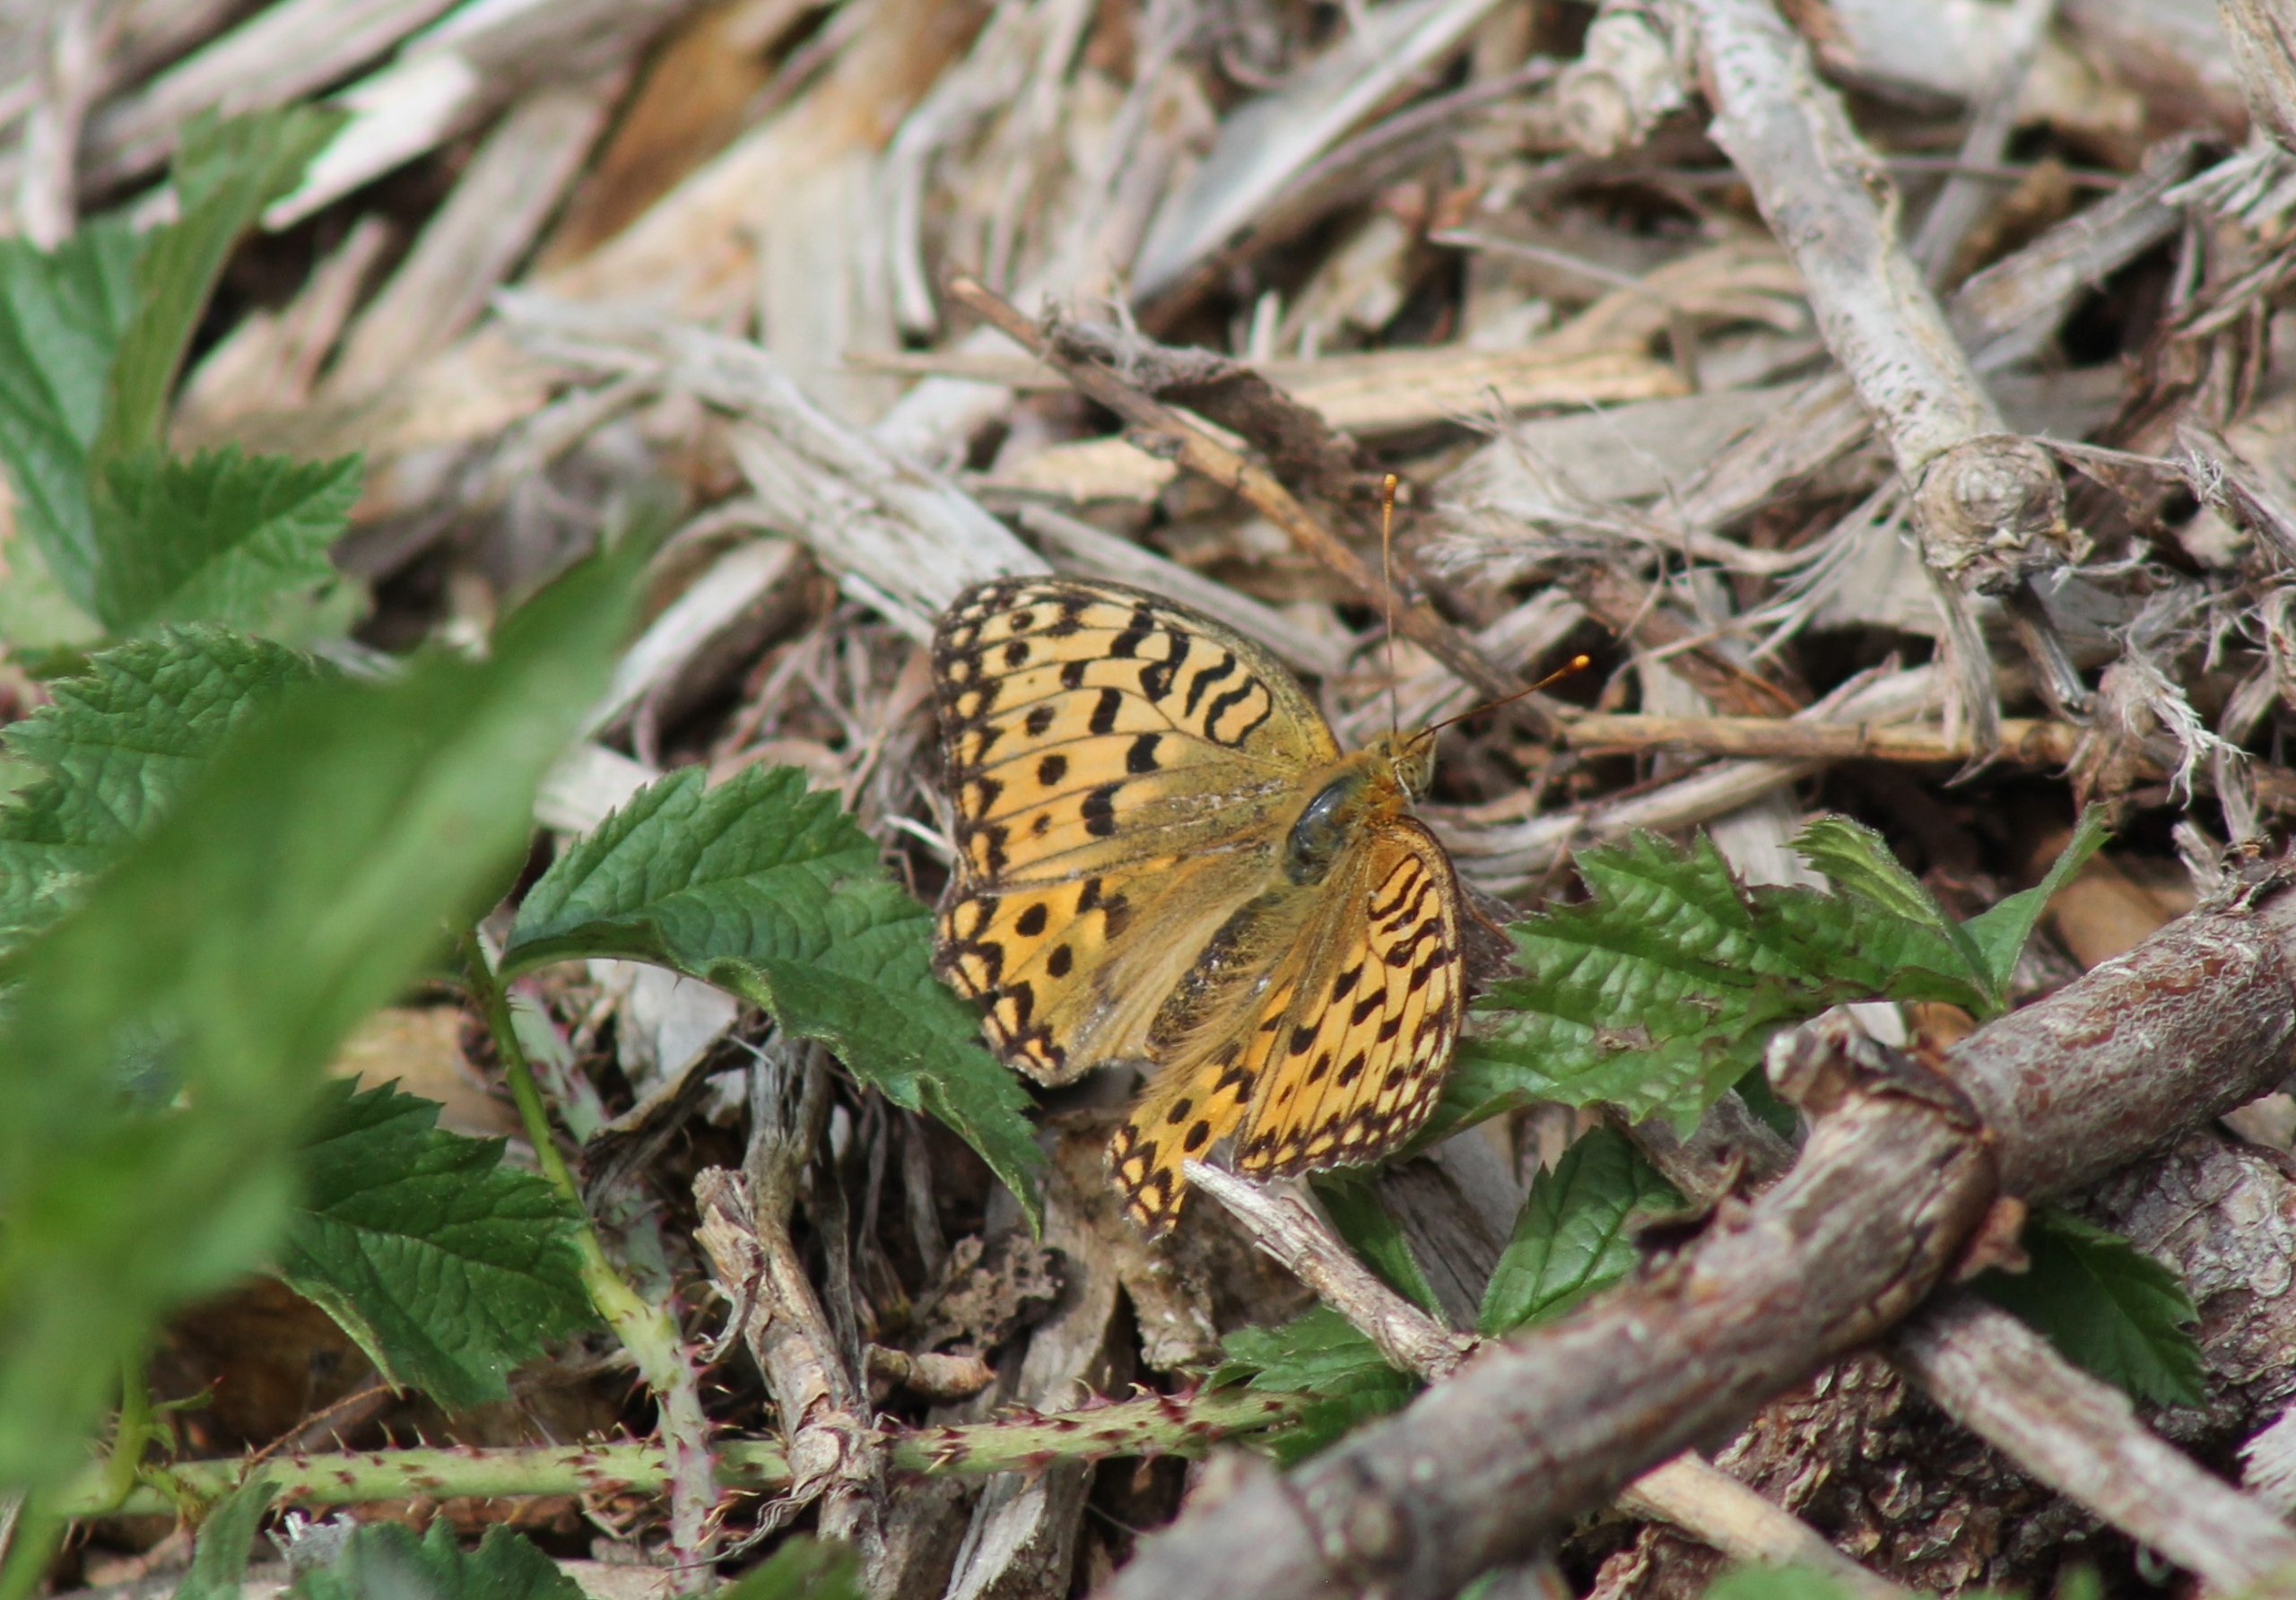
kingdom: Animalia
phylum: Arthropoda
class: Insecta
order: Lepidoptera
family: Nymphalidae
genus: Speyeria
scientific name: Speyeria aglaja
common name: Markperlemorsommerfugl
